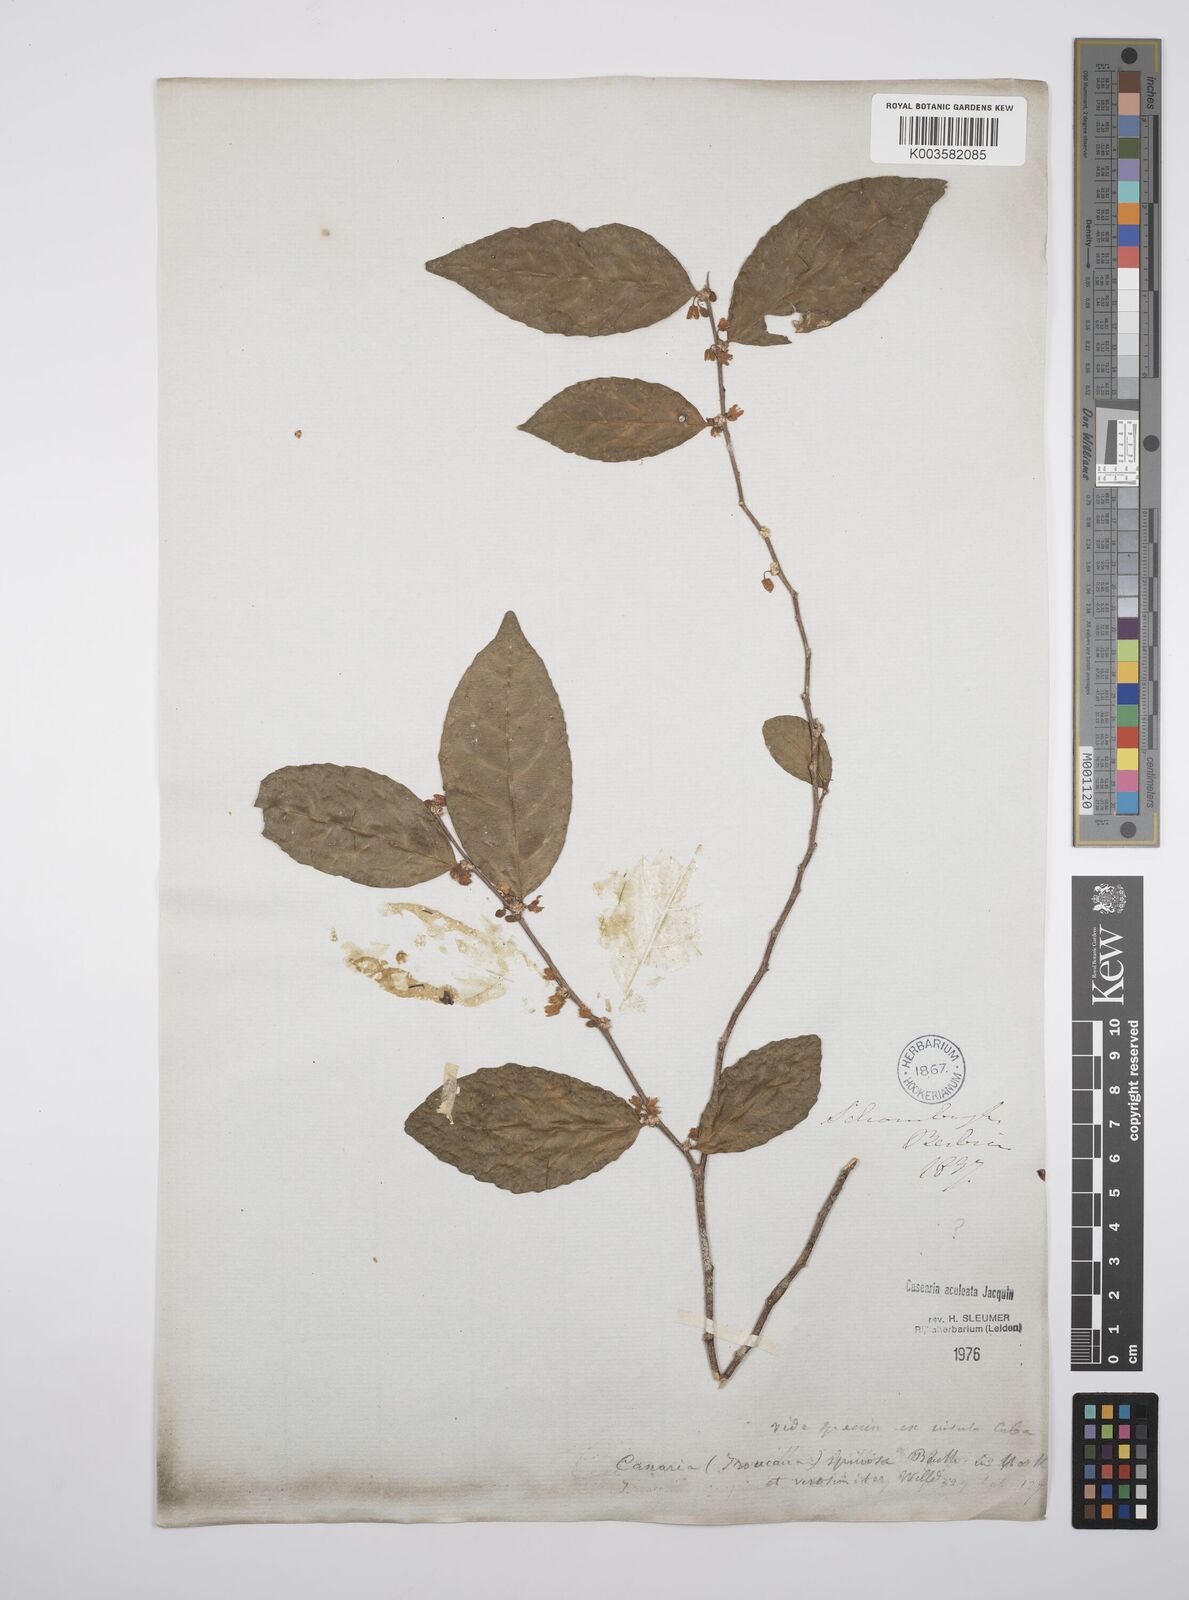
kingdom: Plantae
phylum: Tracheophyta
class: Magnoliopsida
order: Malpighiales
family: Salicaceae
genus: Casearia
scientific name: Casearia aculeata
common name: Cockspur
